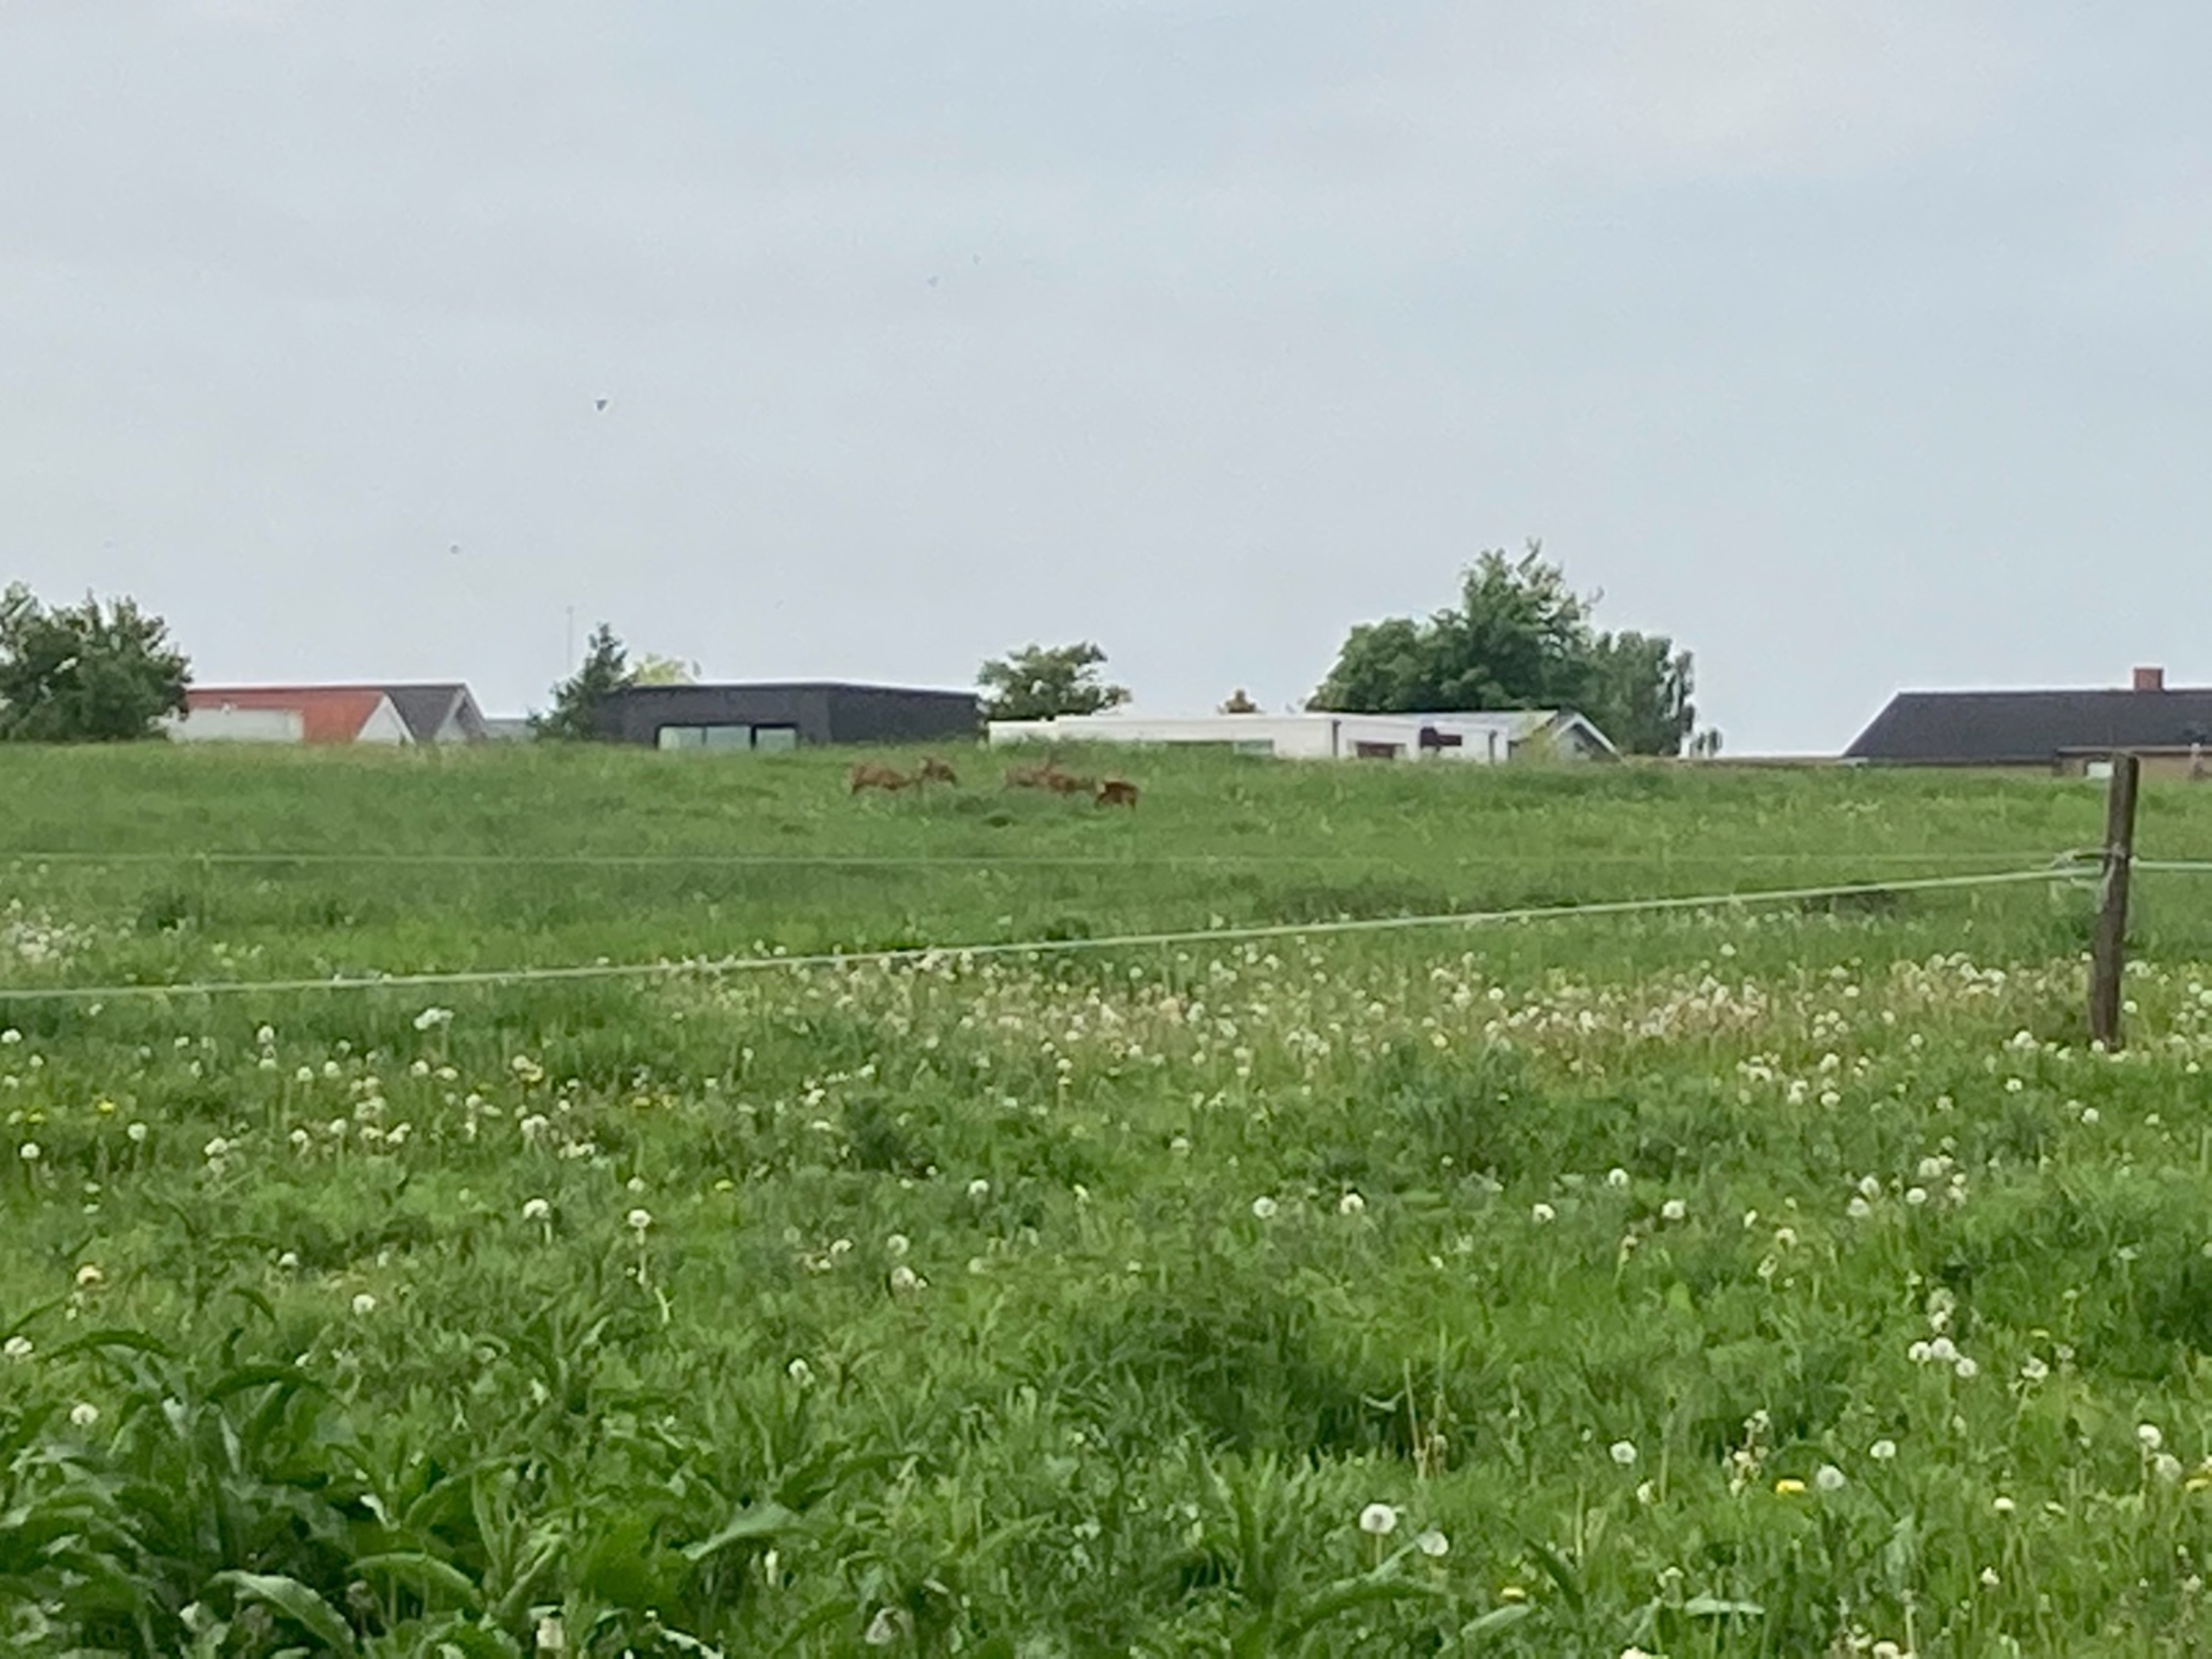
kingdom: Animalia
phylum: Chordata
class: Mammalia
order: Artiodactyla
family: Cervidae
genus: Capreolus
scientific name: Capreolus capreolus
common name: Rådyr
